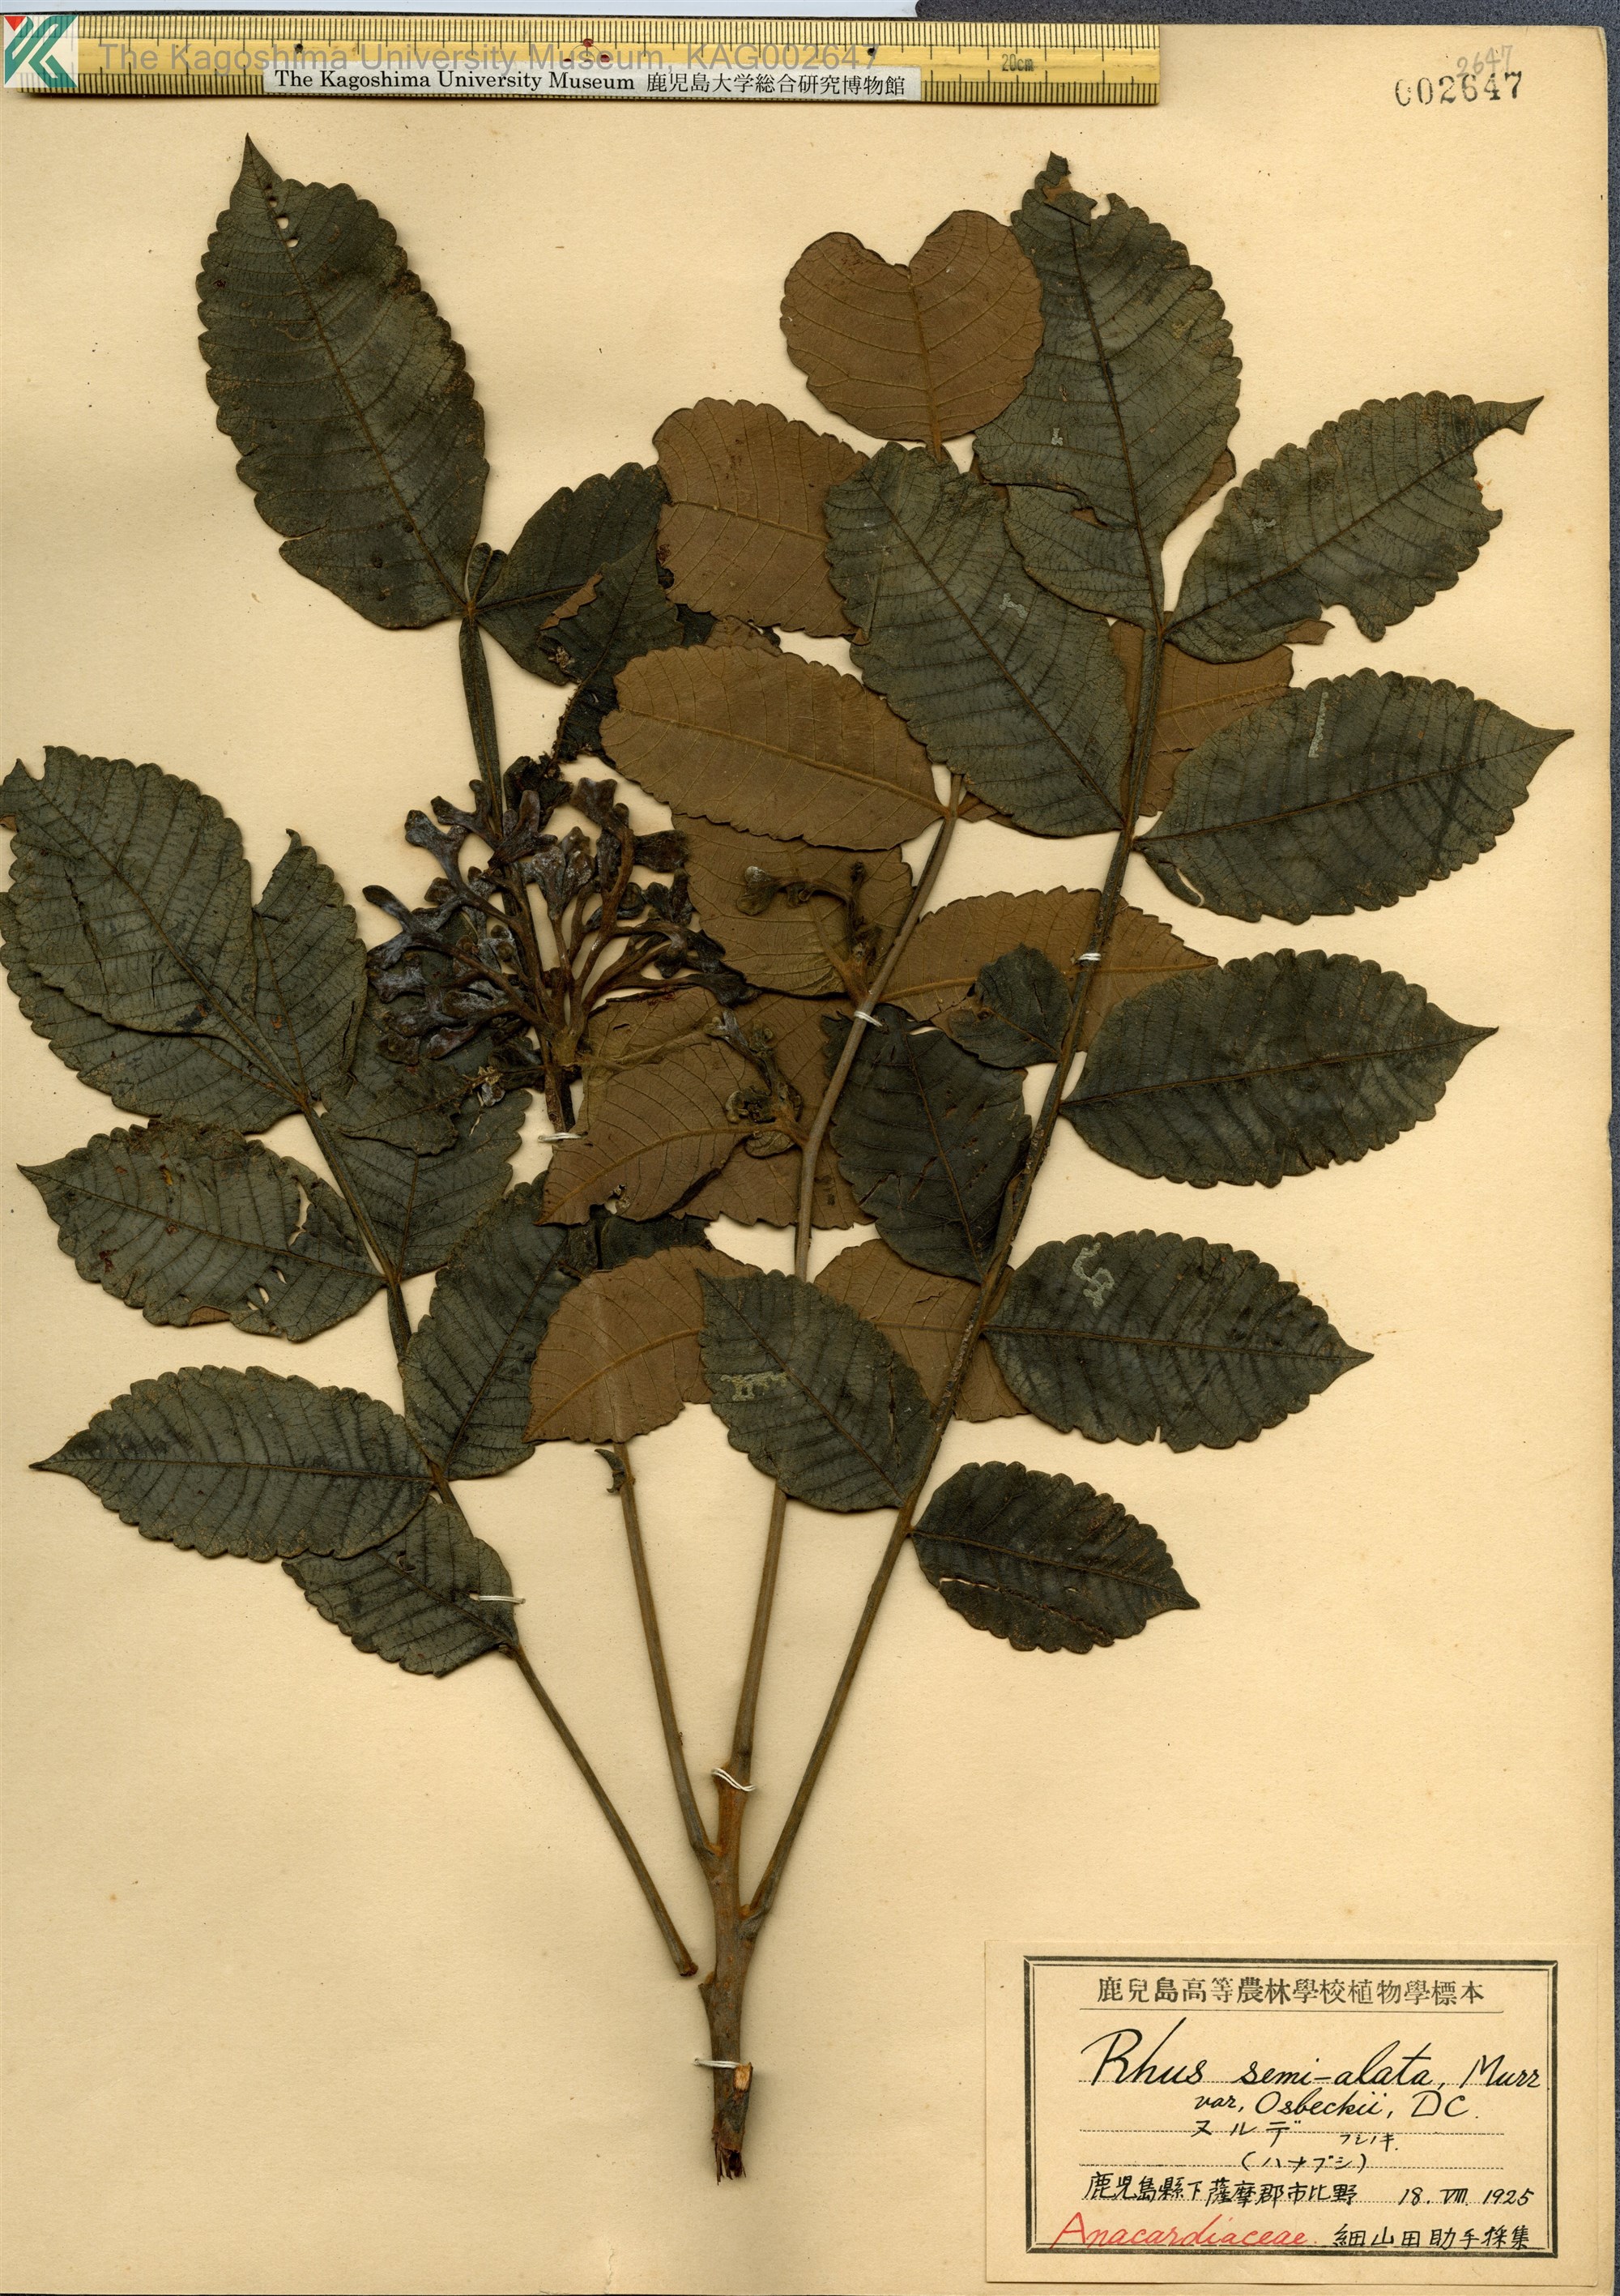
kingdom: Plantae
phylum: Tracheophyta
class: Magnoliopsida
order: Sapindales
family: Simaroubaceae
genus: Brucea
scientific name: Brucea javanica
